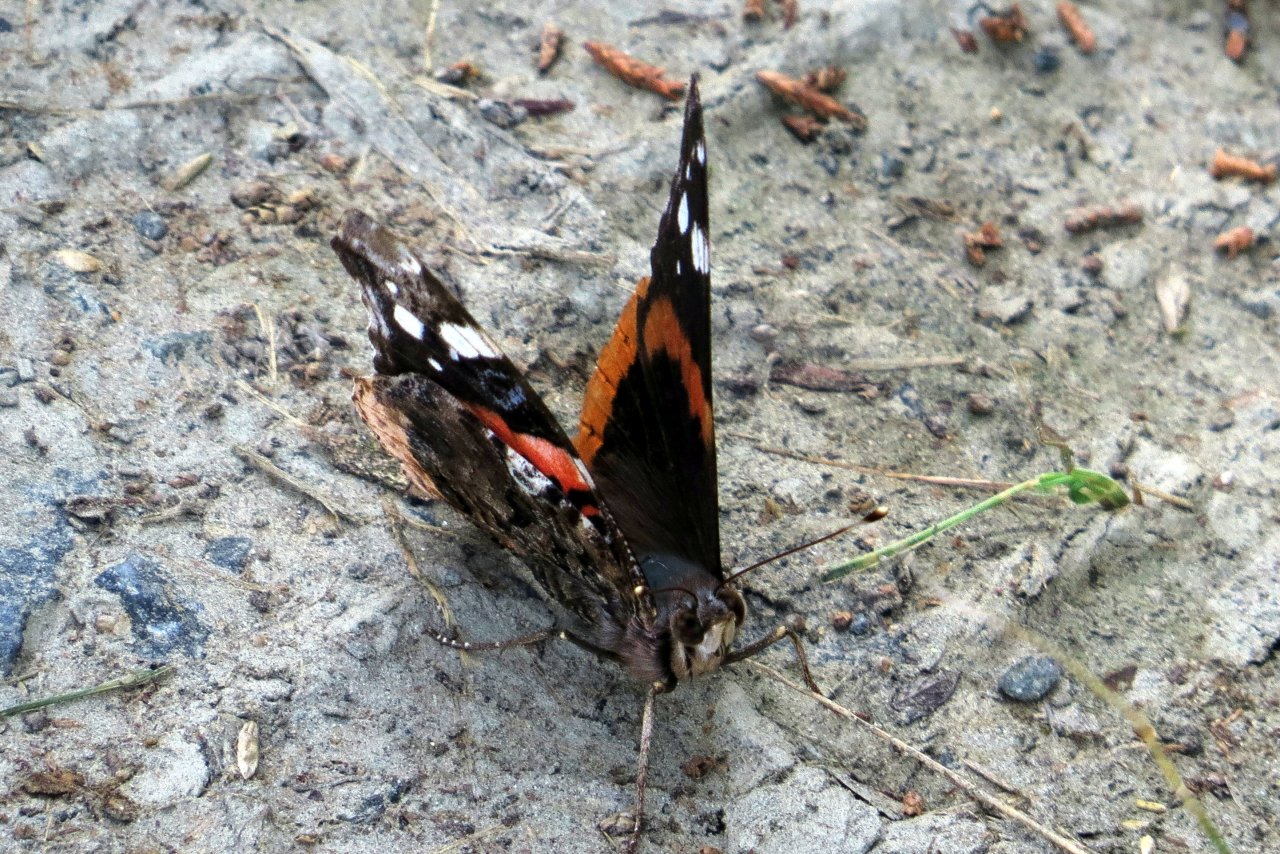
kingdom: Animalia
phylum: Arthropoda
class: Insecta
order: Lepidoptera
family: Nymphalidae
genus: Vanessa
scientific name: Vanessa atalanta
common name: Red Admiral
